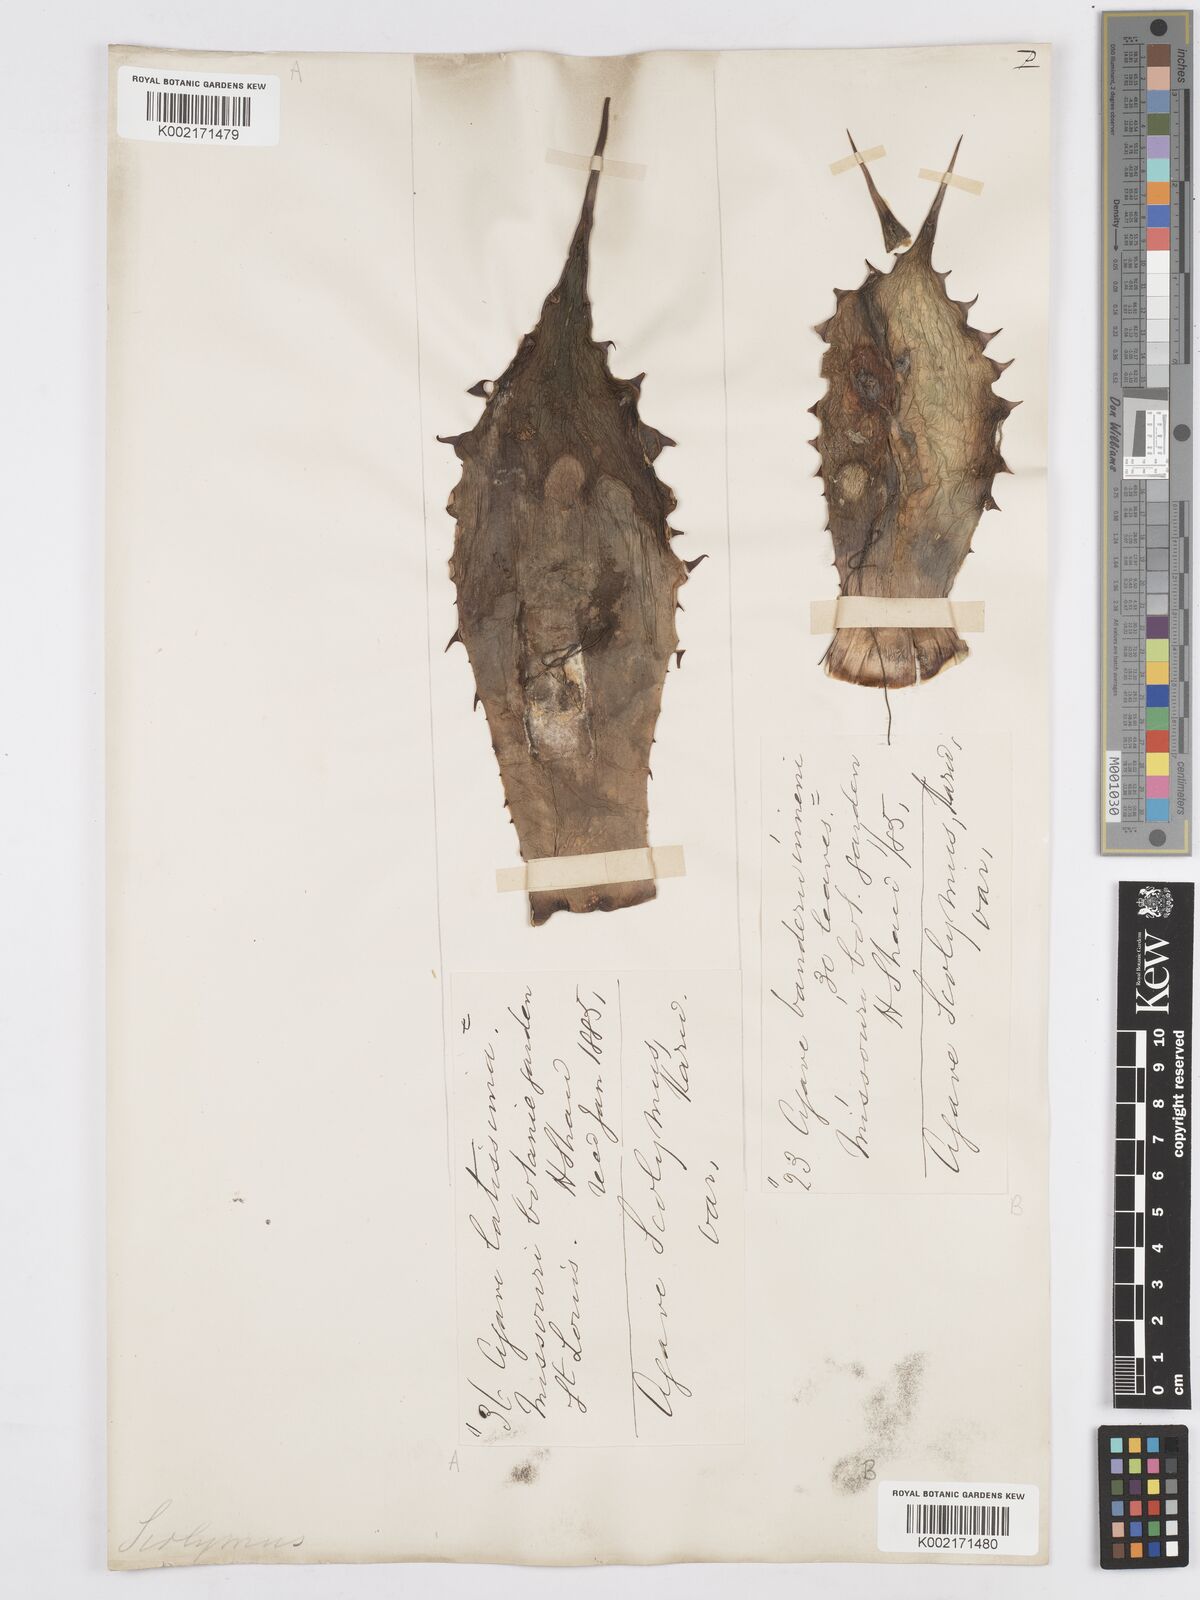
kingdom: Plantae
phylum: Tracheophyta
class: Liliopsida
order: Asparagales
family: Asparagaceae
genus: Agave
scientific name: Agave potatorum
